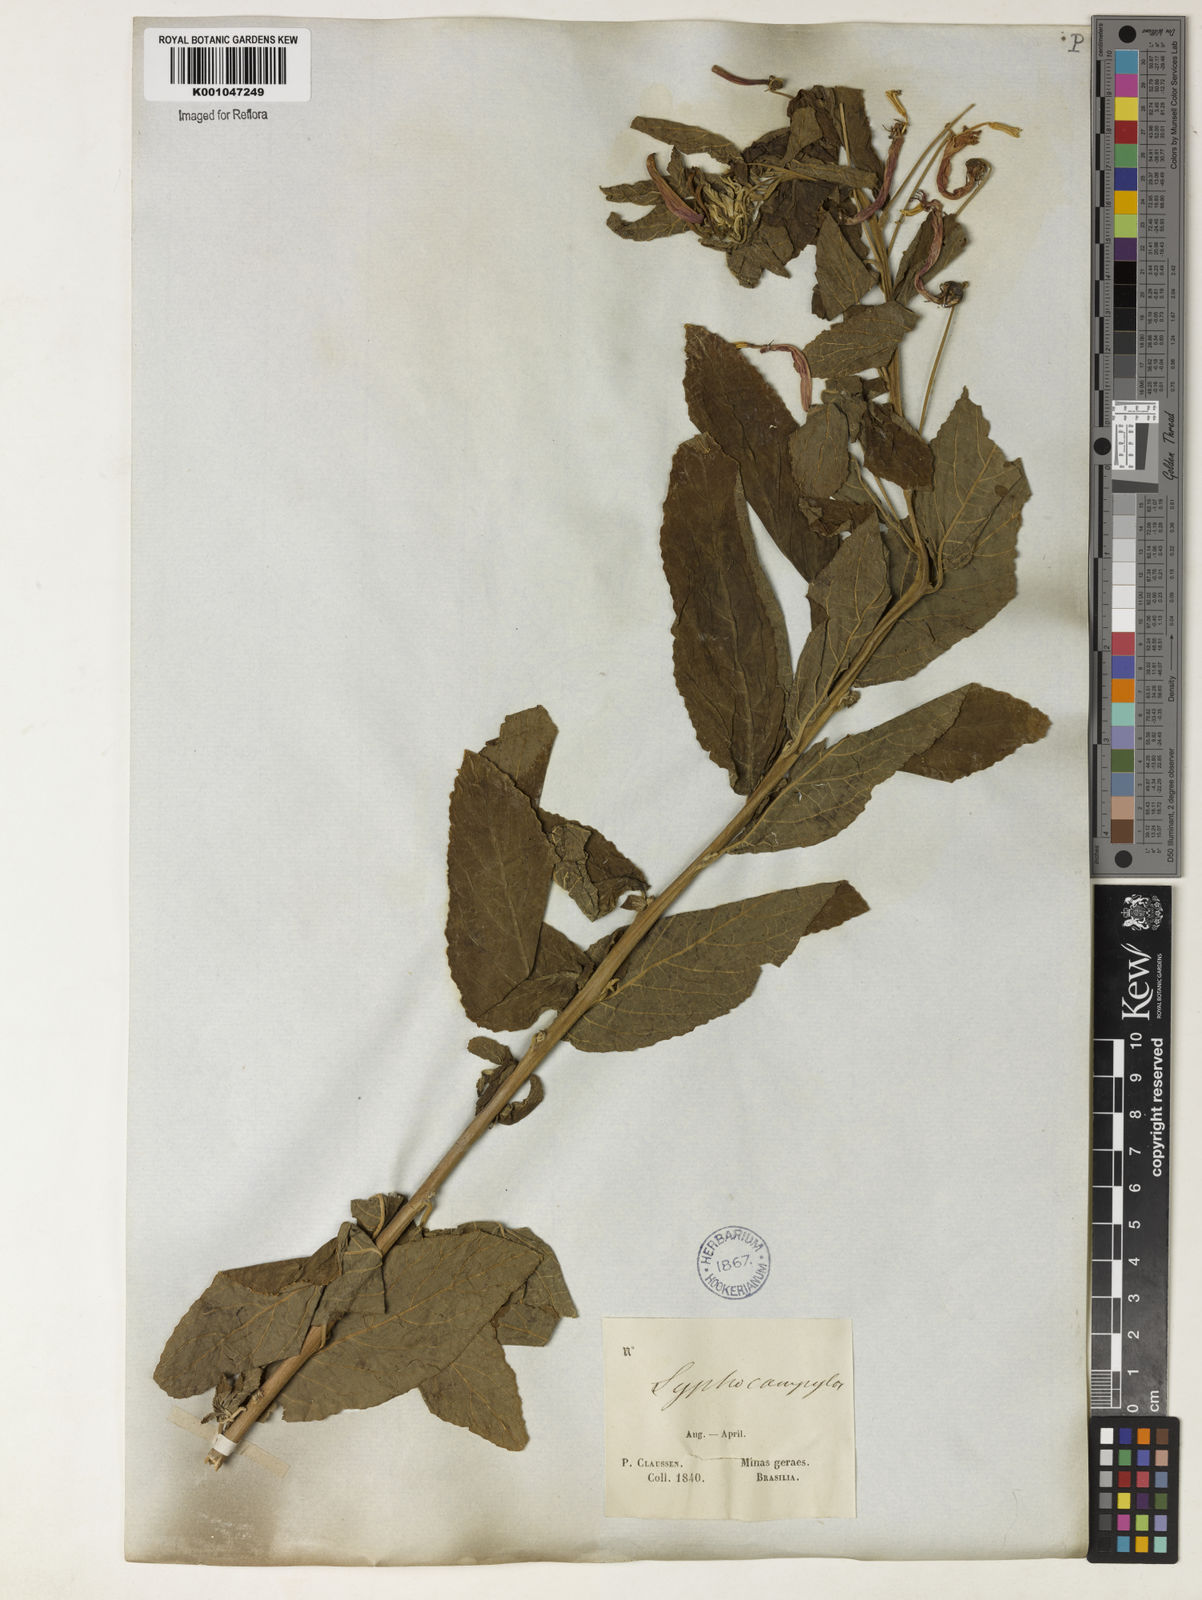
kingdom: Plantae
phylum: Tracheophyta
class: Magnoliopsida
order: Asterales
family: Campanulaceae
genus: Siphocampylus
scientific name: Siphocampylus macropodus
